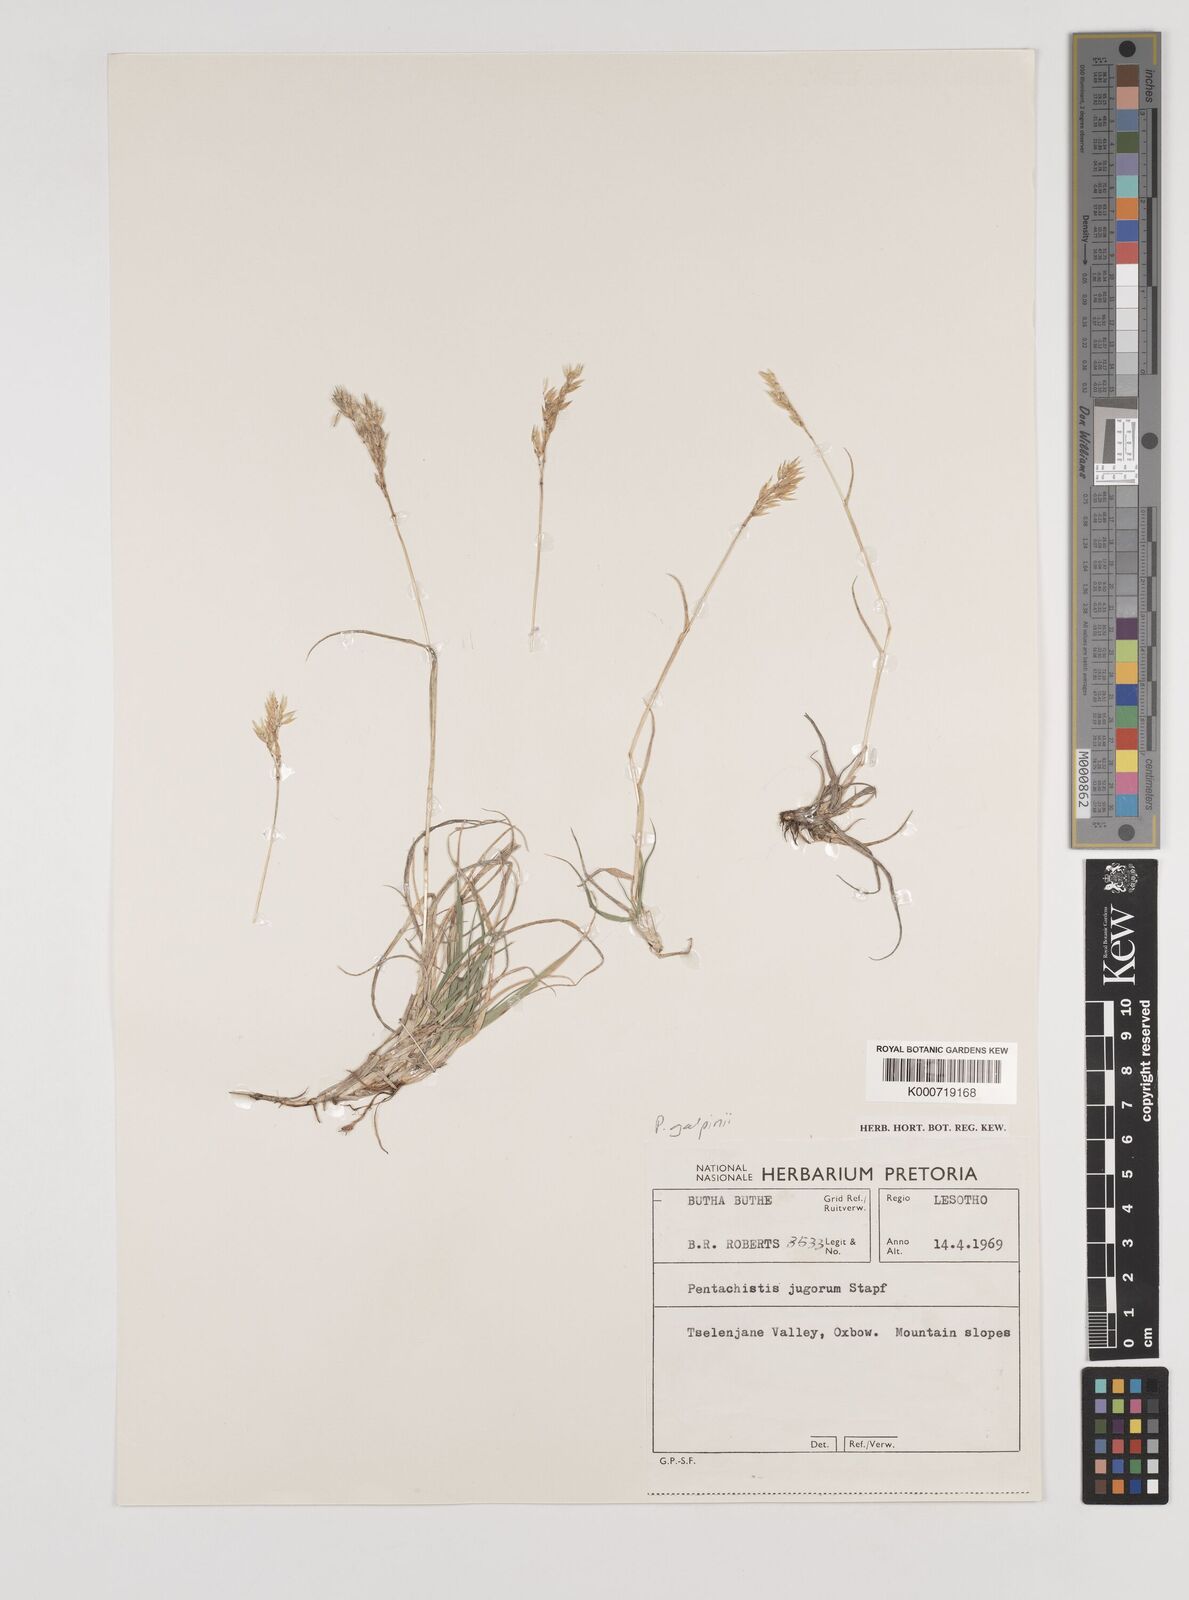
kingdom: Plantae
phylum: Tracheophyta
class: Liliopsida
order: Poales
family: Poaceae
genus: Pentameris
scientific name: Pentameris galpinii
